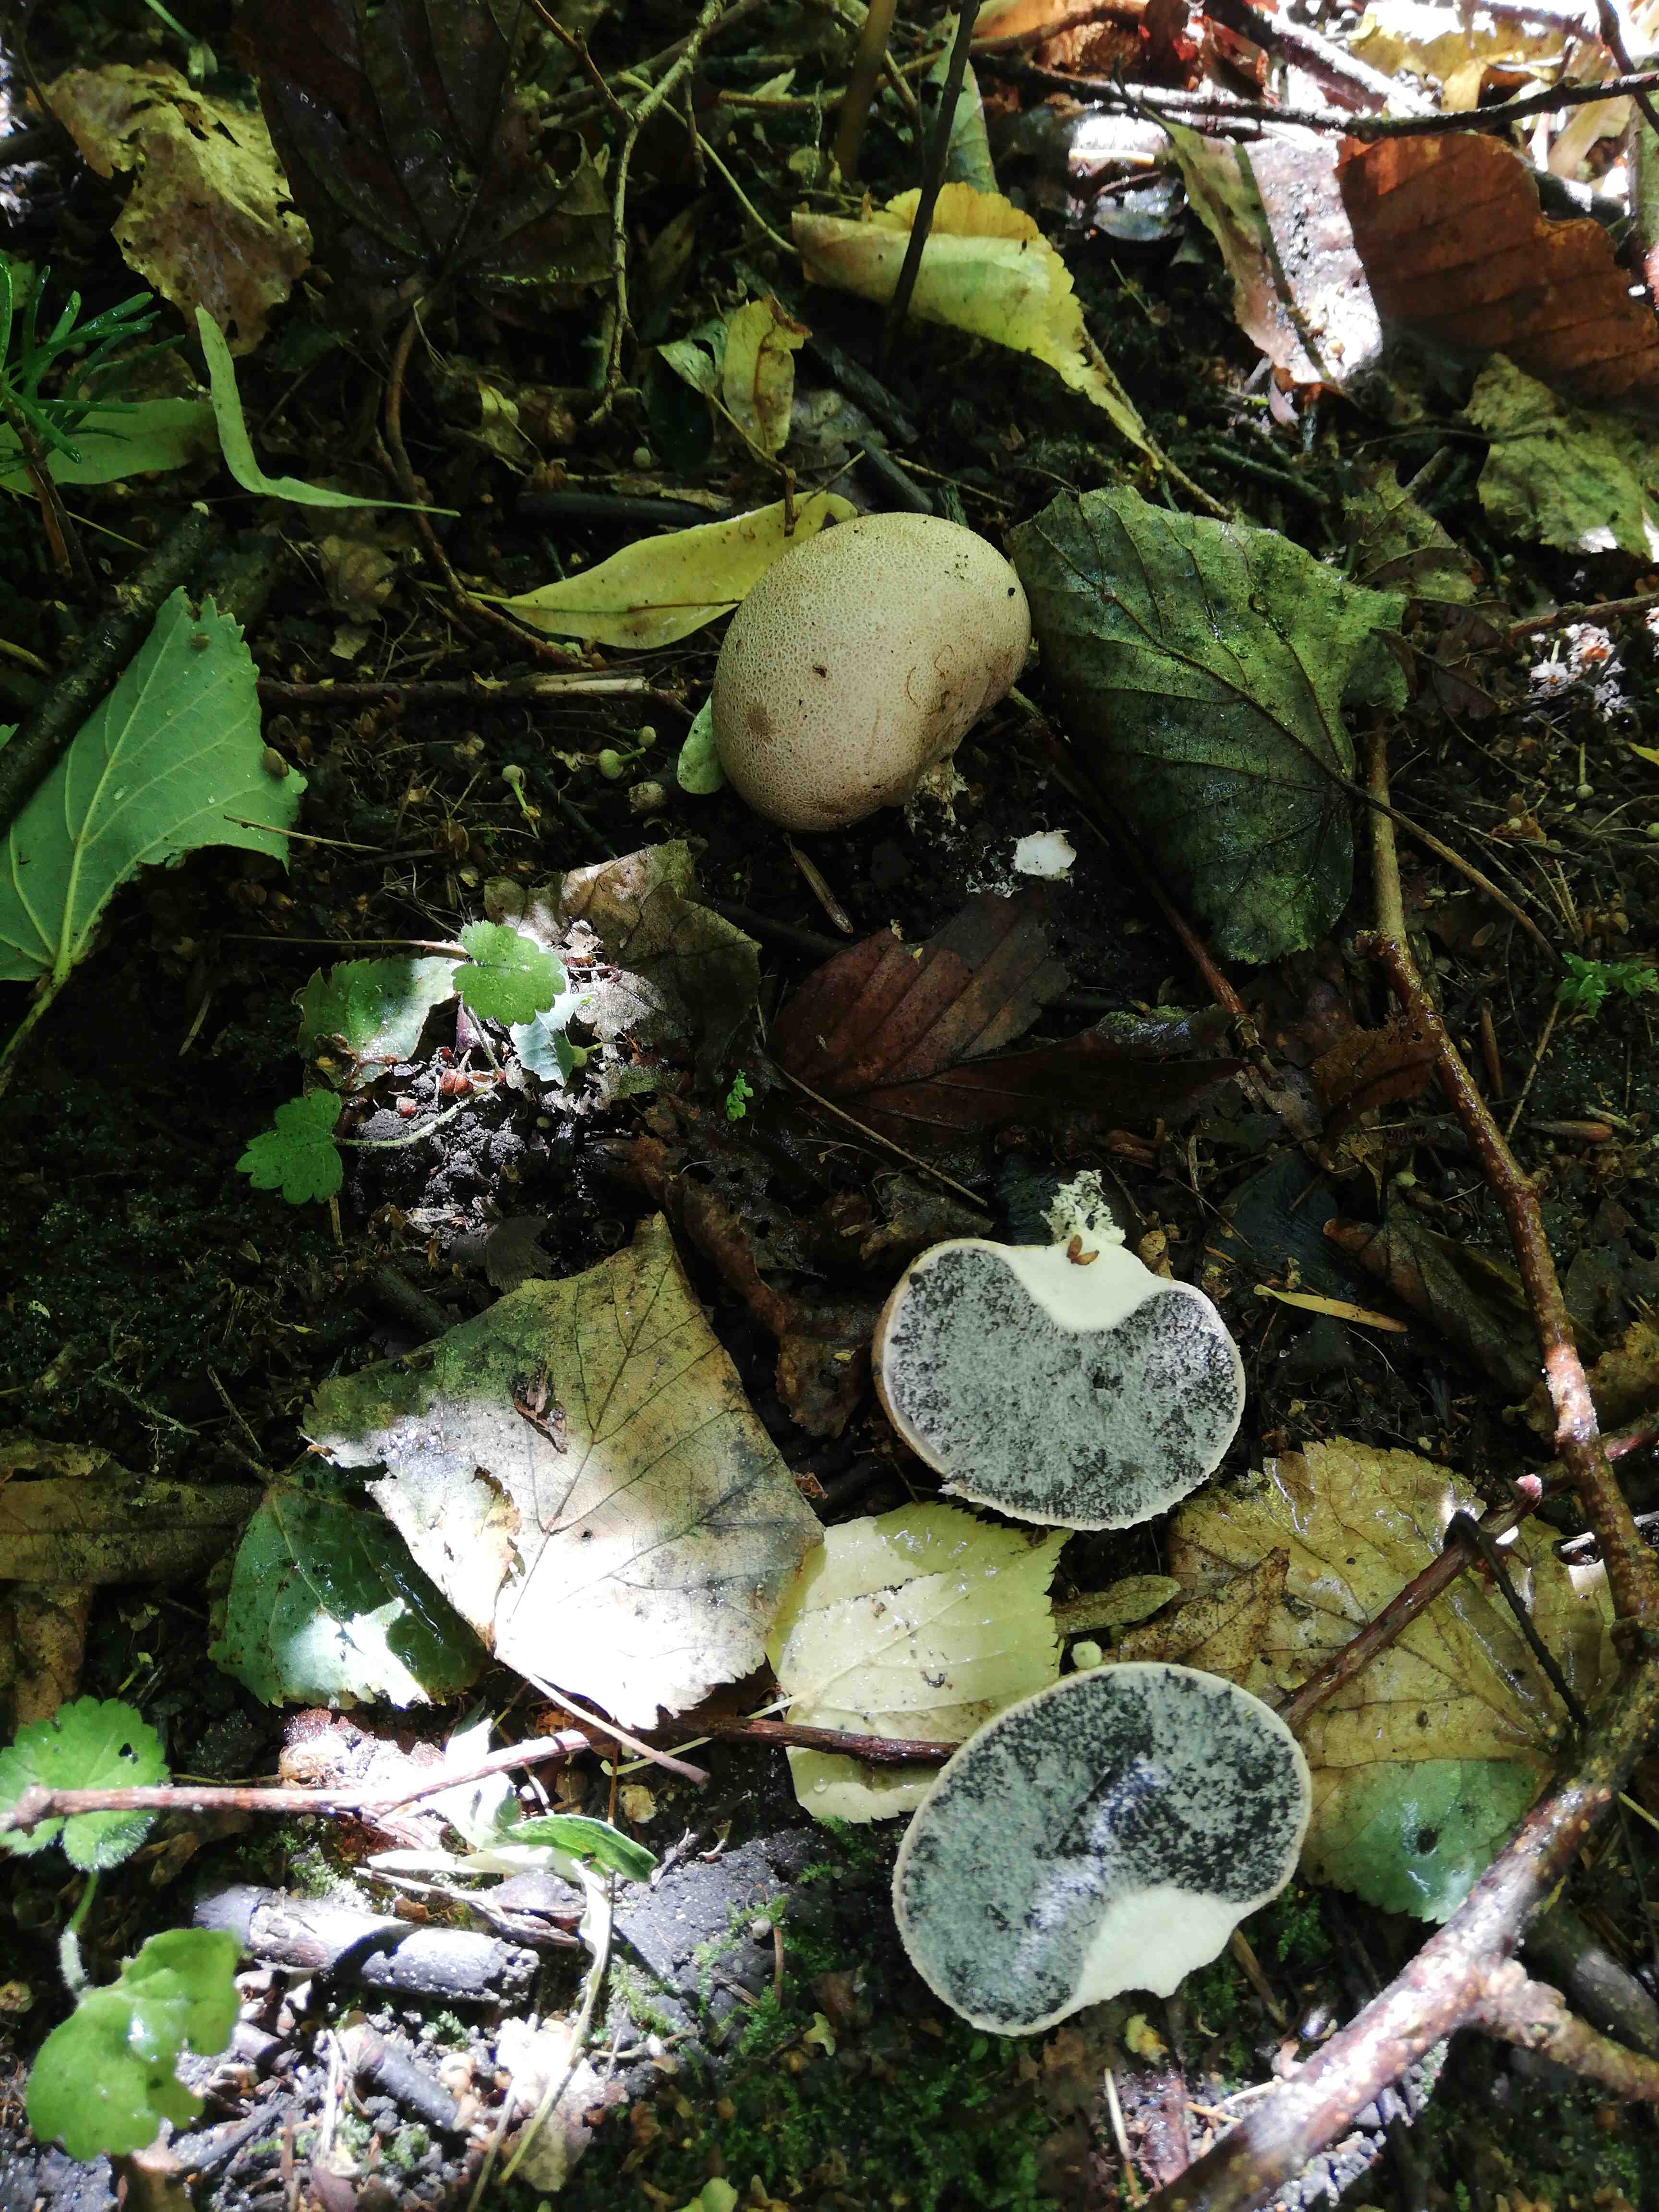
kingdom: Fungi
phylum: Basidiomycota
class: Agaricomycetes
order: Boletales
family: Sclerodermataceae
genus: Scleroderma
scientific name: Scleroderma citrinum
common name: almindelig bruskbold
